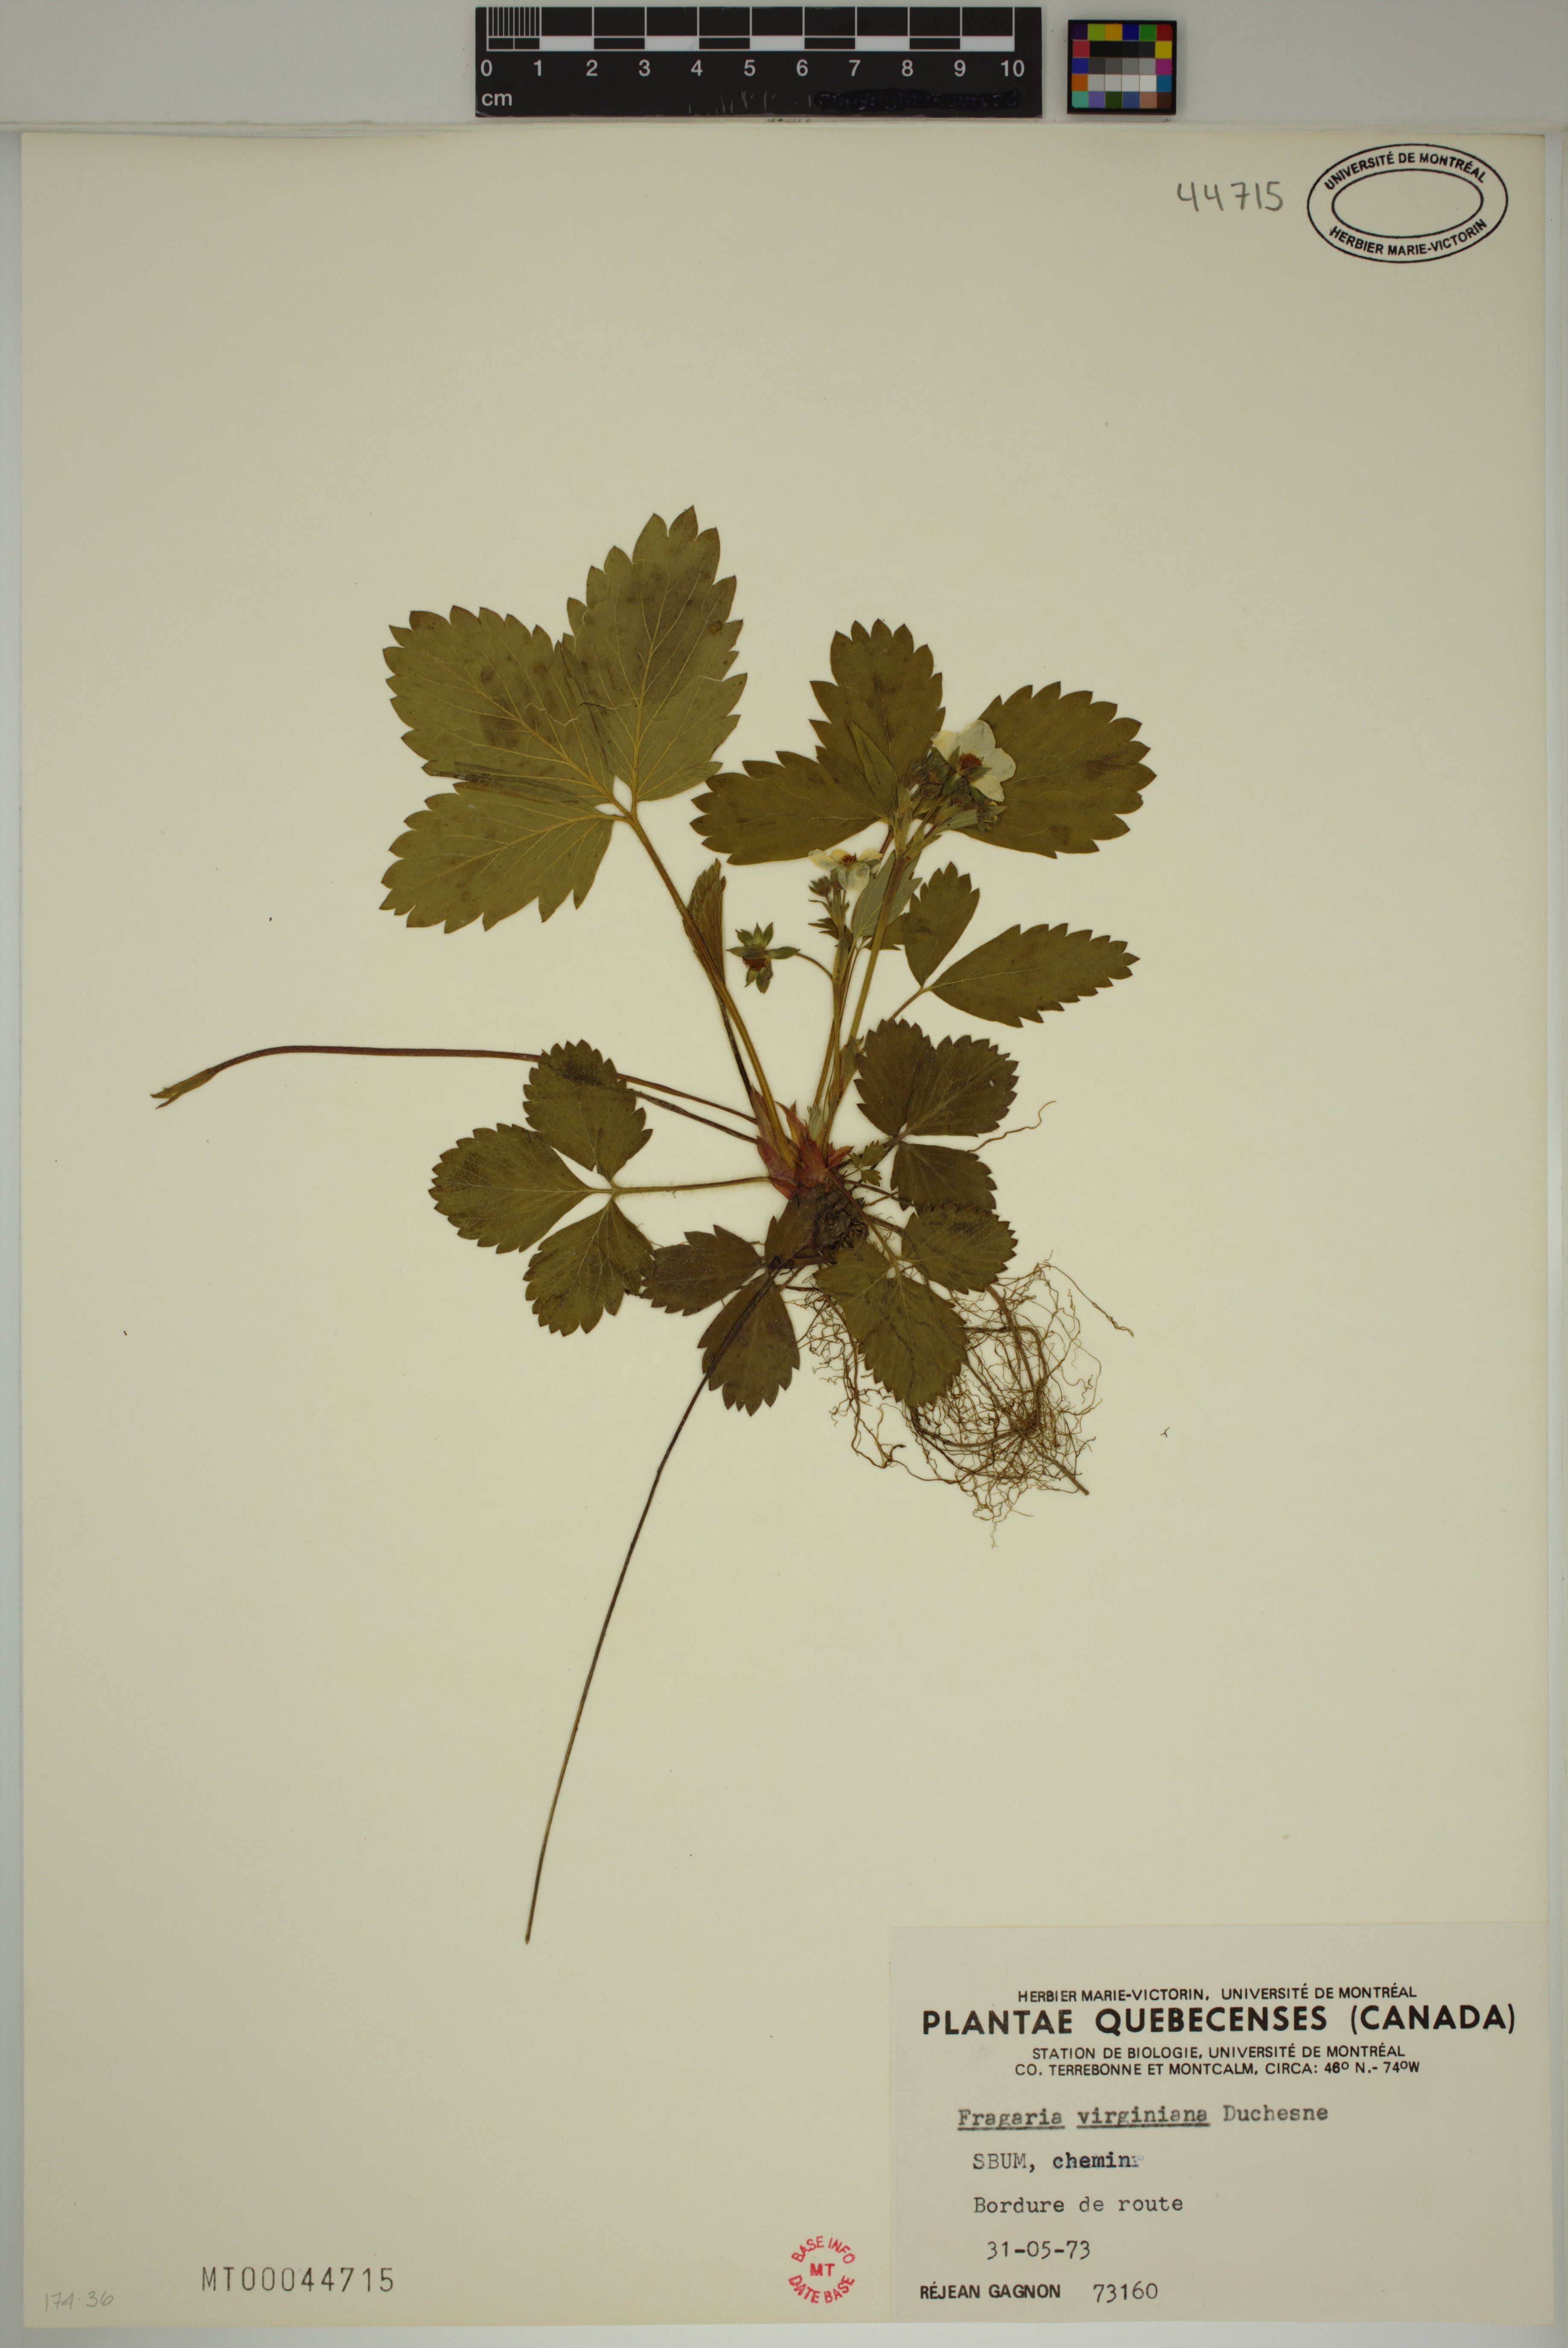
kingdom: Plantae
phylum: Tracheophyta
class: Magnoliopsida
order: Rosales
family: Rosaceae
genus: Fragaria
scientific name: Fragaria virginiana
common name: Thickleaved wild strawberry
